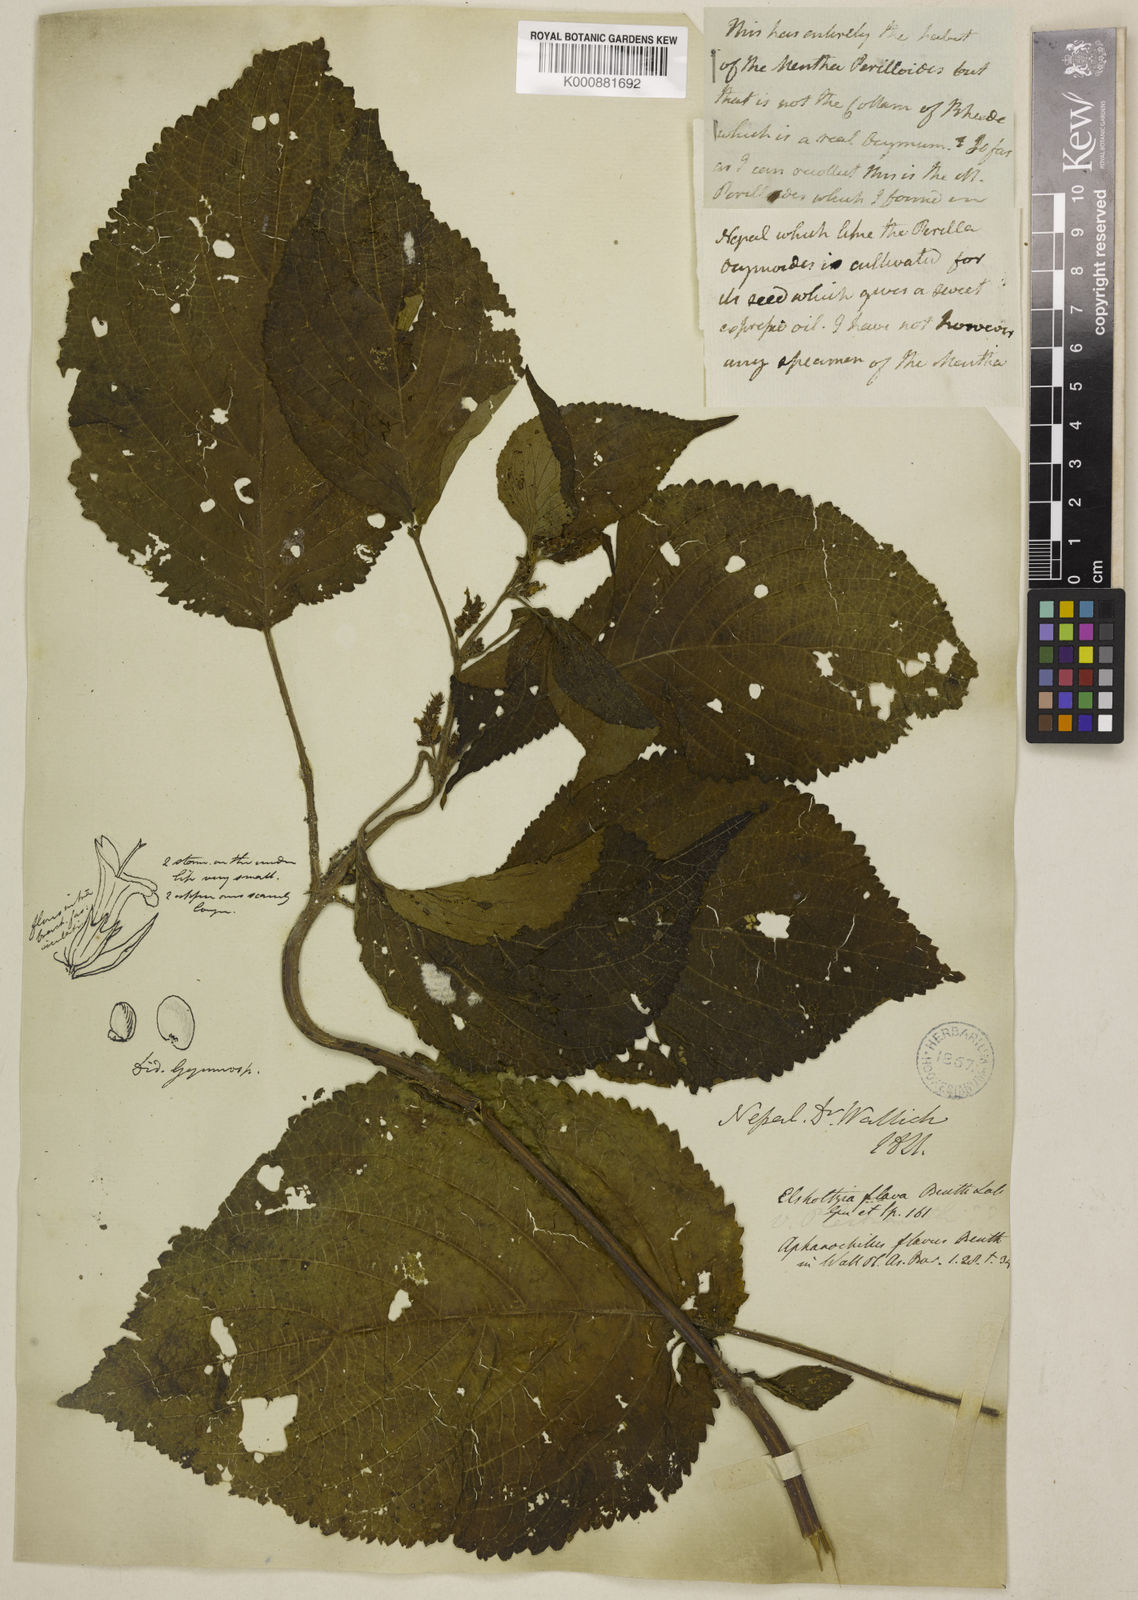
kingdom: Plantae
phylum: Tracheophyta
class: Magnoliopsida
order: Lamiales
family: Lamiaceae
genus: Elsholtzia
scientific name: Elsholtzia flava
